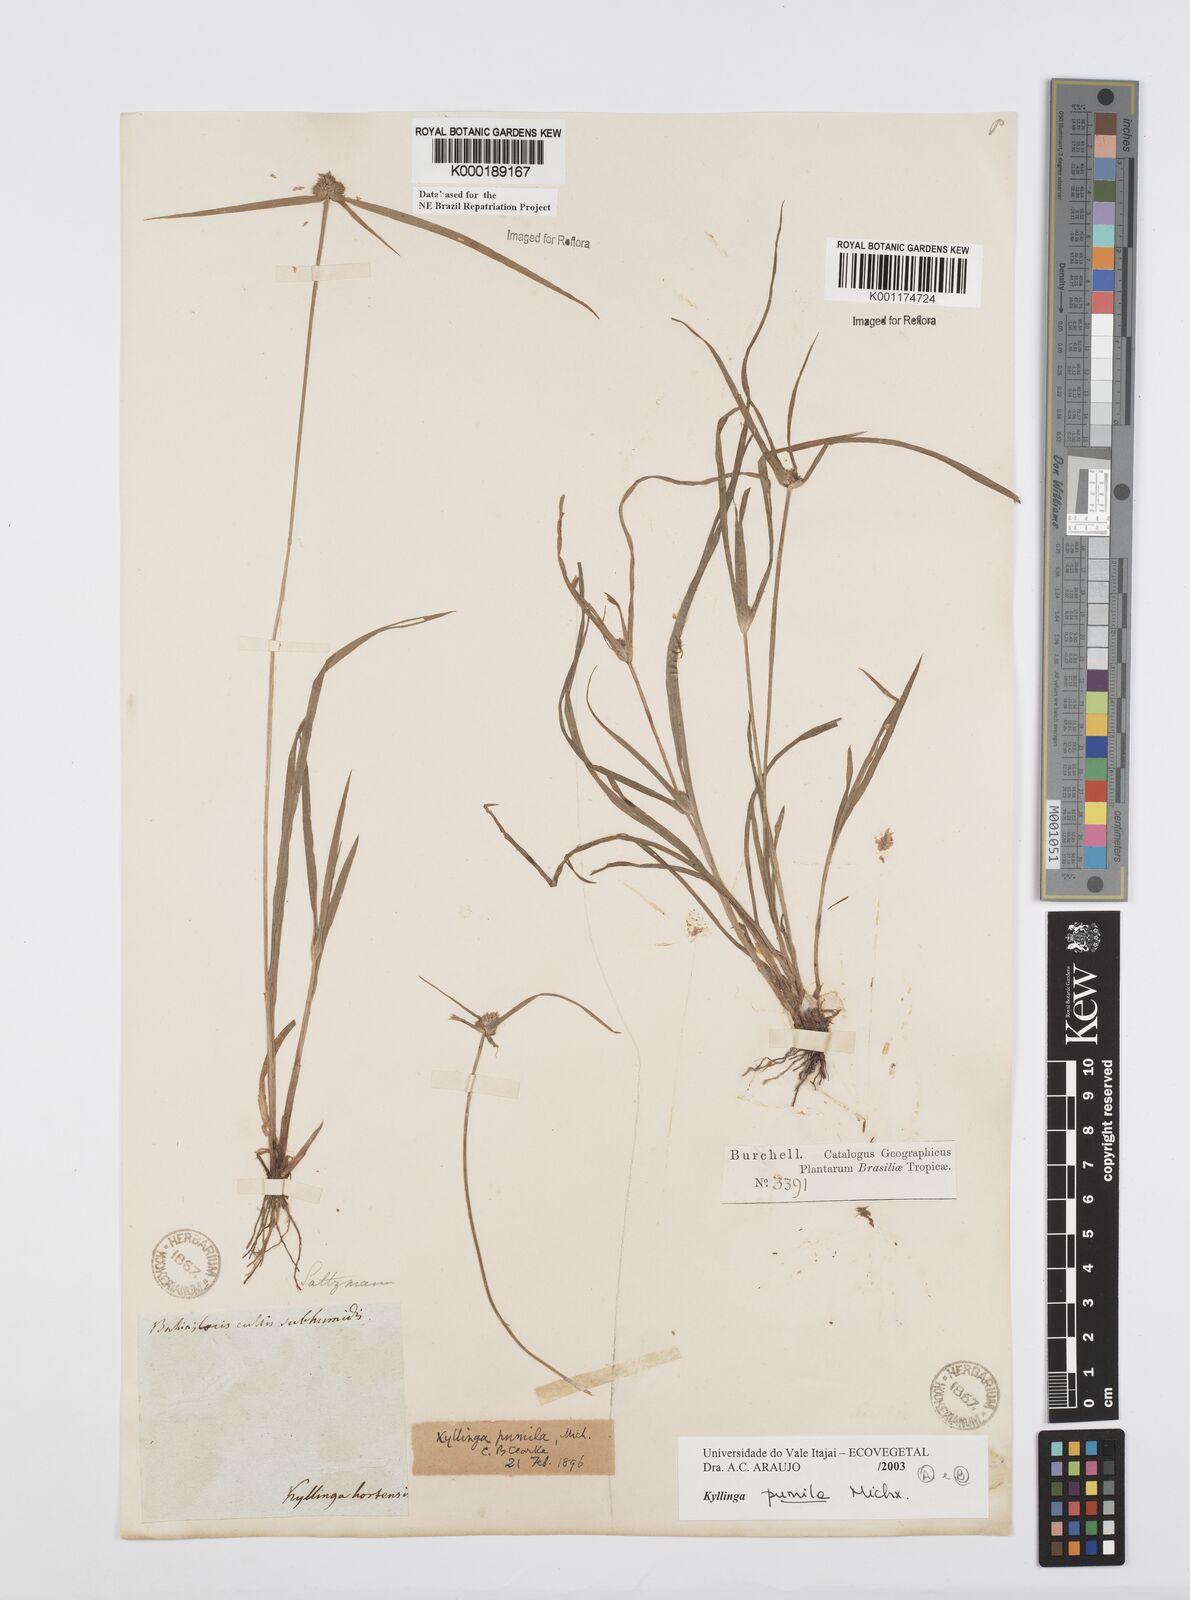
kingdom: Plantae
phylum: Tracheophyta
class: Liliopsida
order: Poales
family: Cyperaceae
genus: Cyperus
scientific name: Cyperus
